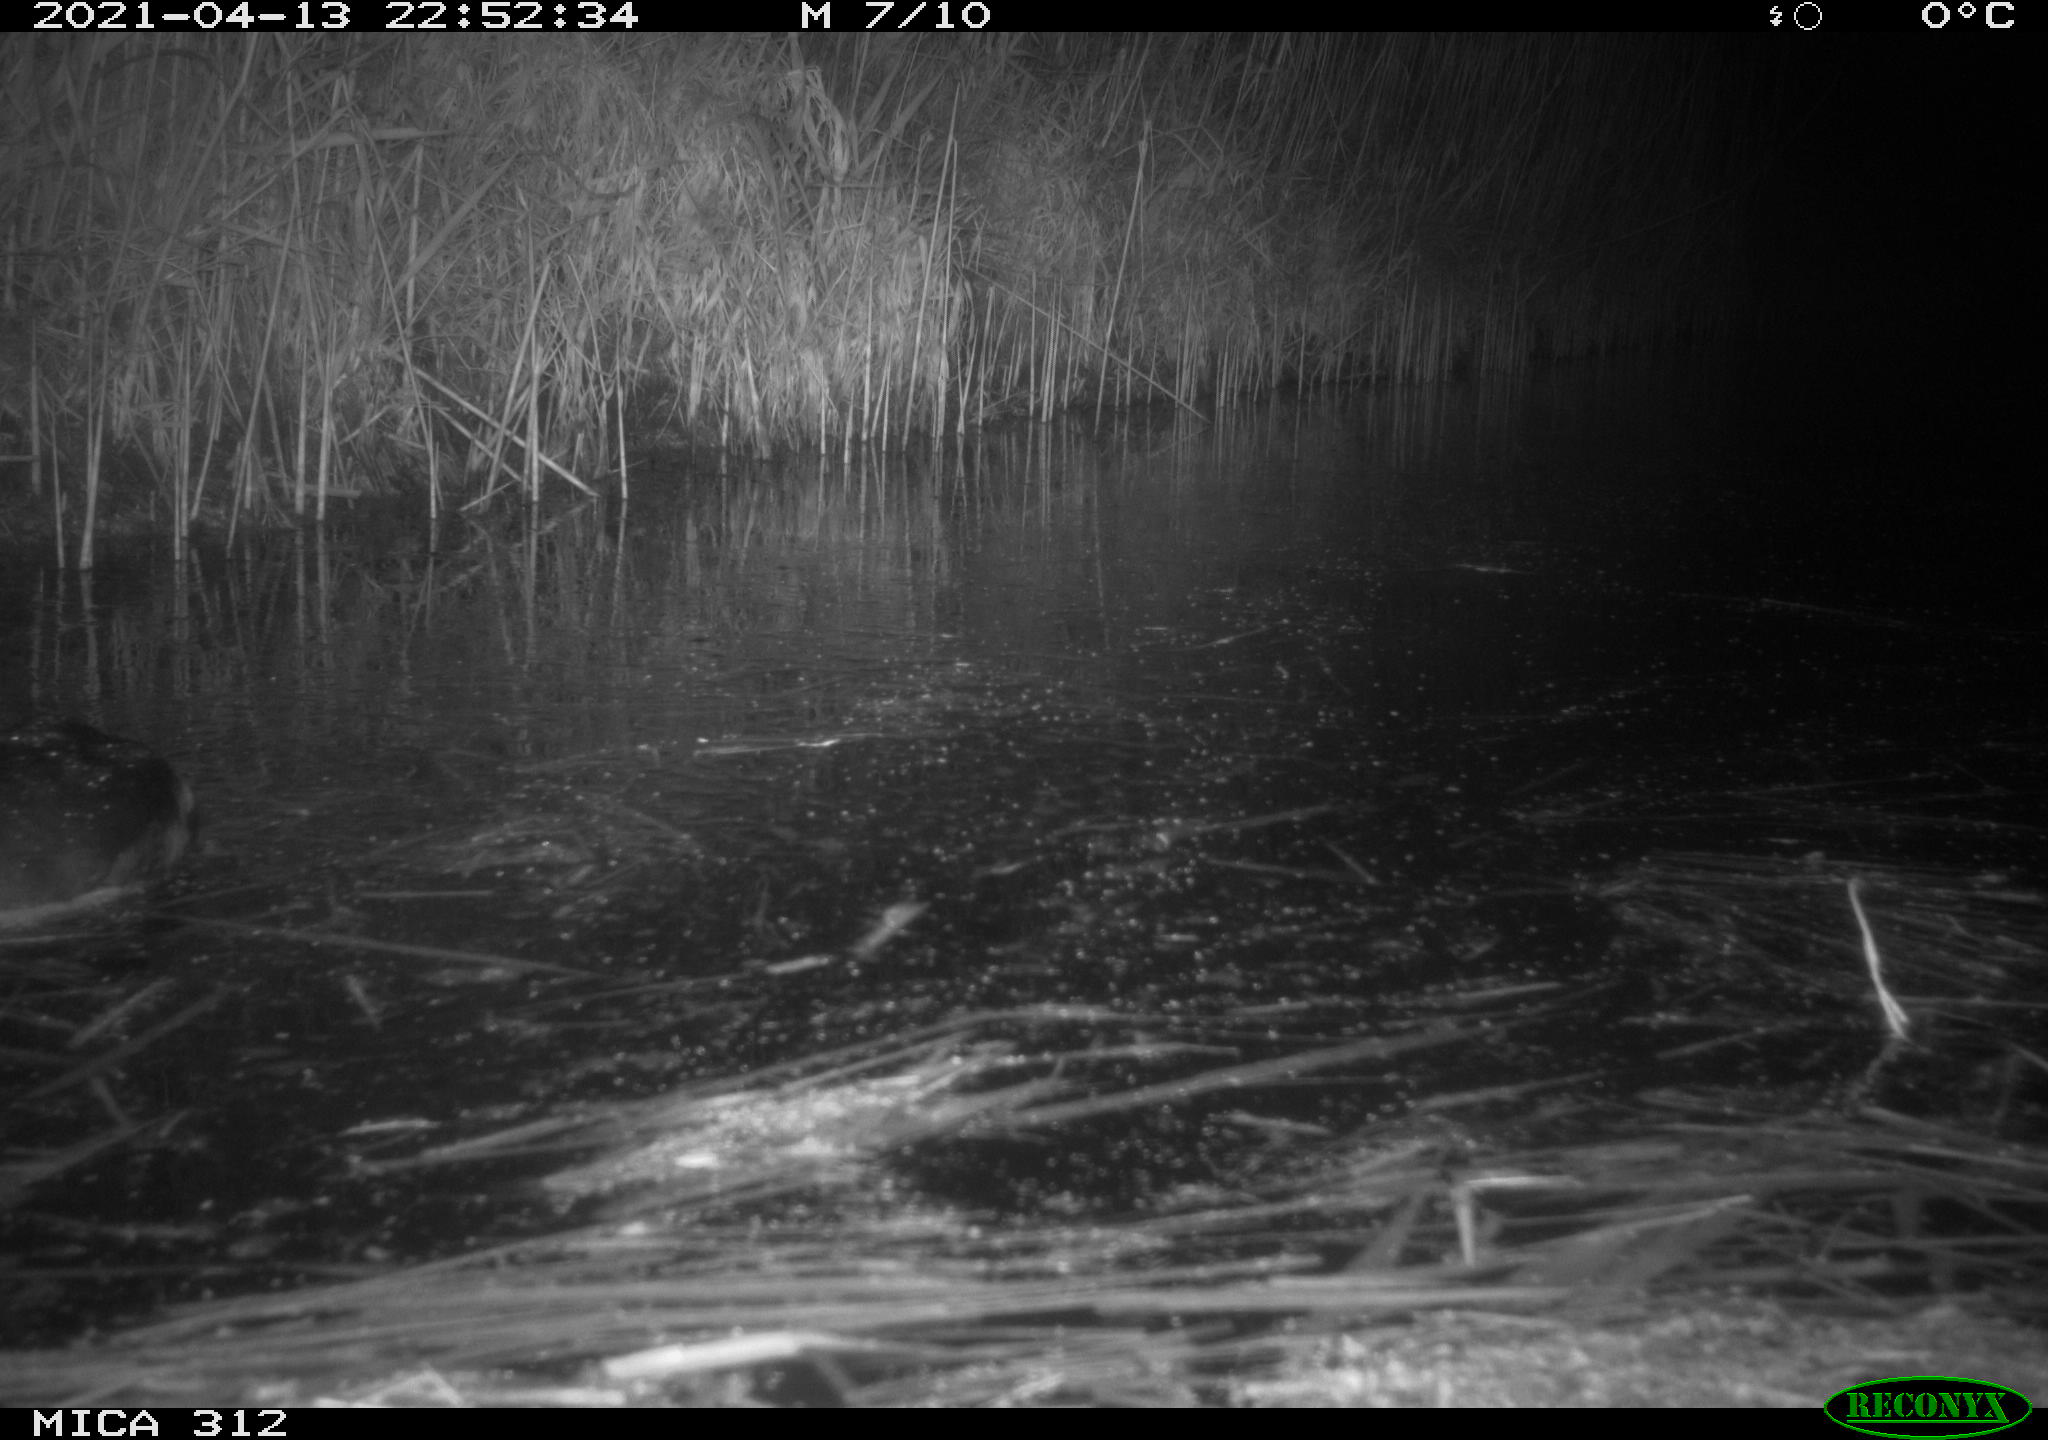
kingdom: Animalia
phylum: Chordata
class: Aves
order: Gruiformes
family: Rallidae
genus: Fulica
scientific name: Fulica atra
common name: Eurasian coot
